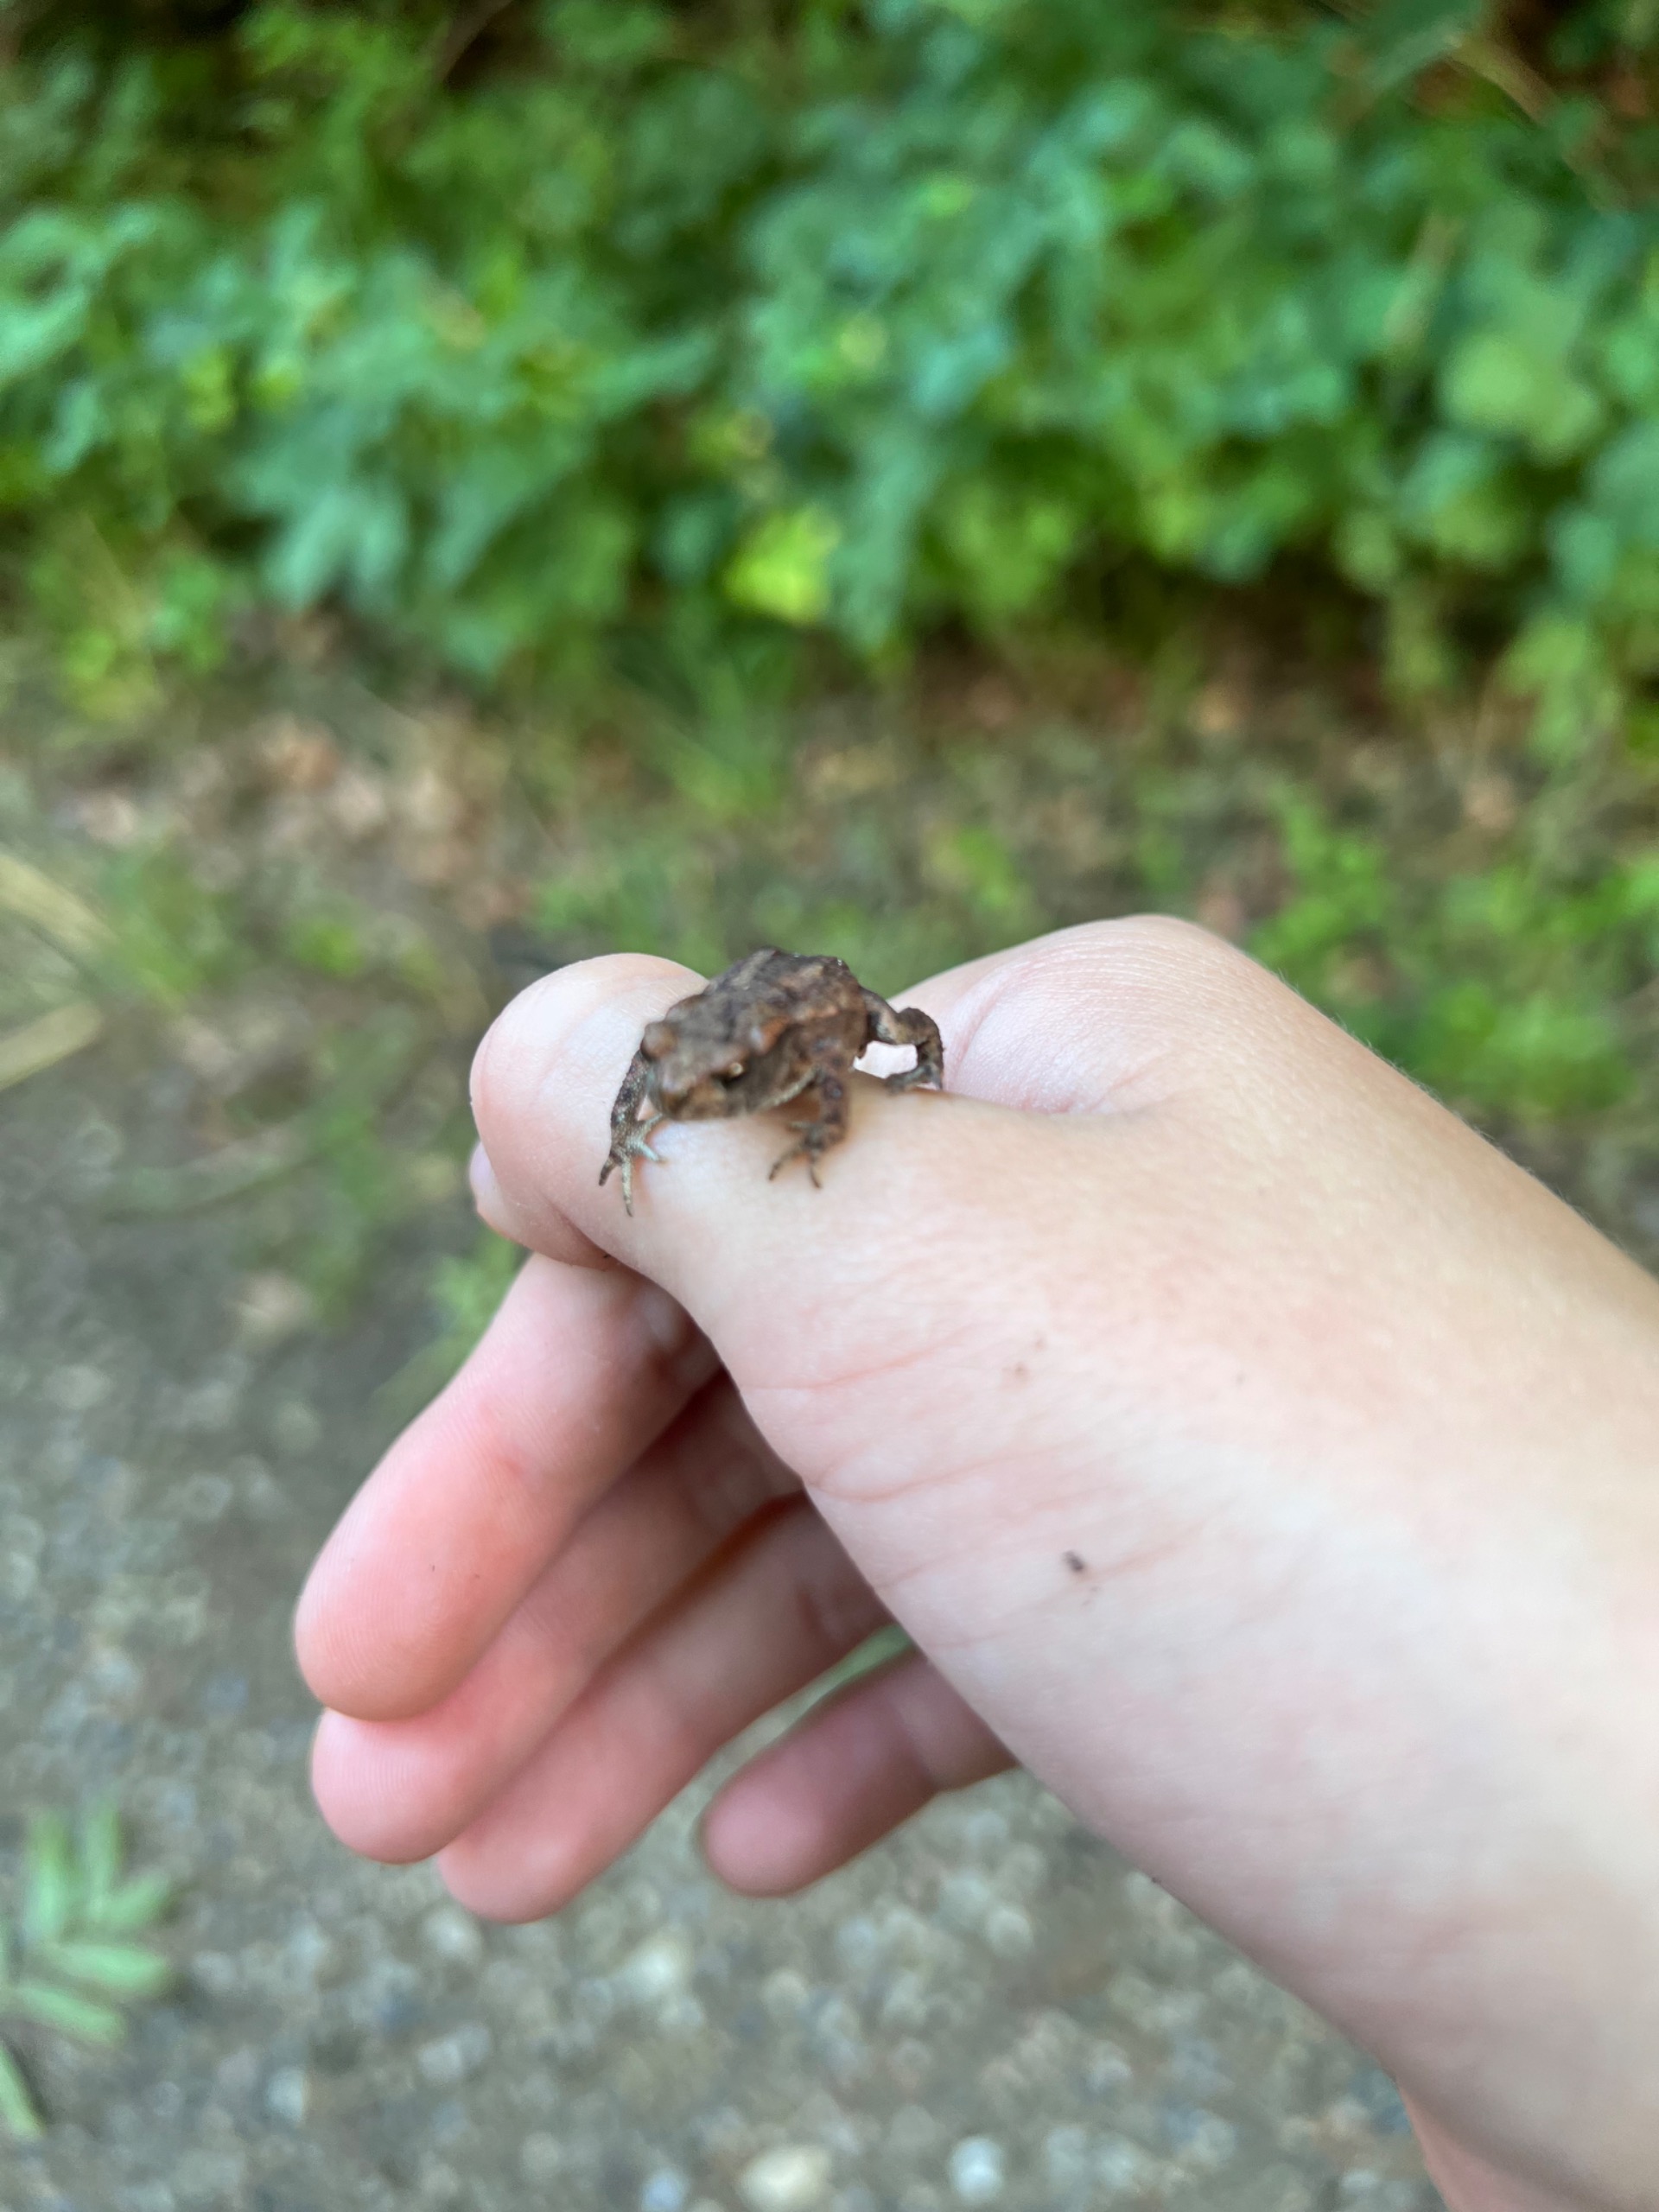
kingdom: Animalia
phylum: Chordata
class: Amphibia
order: Anura
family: Bufonidae
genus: Bufo
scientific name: Bufo bufo
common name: Skrubtudse
